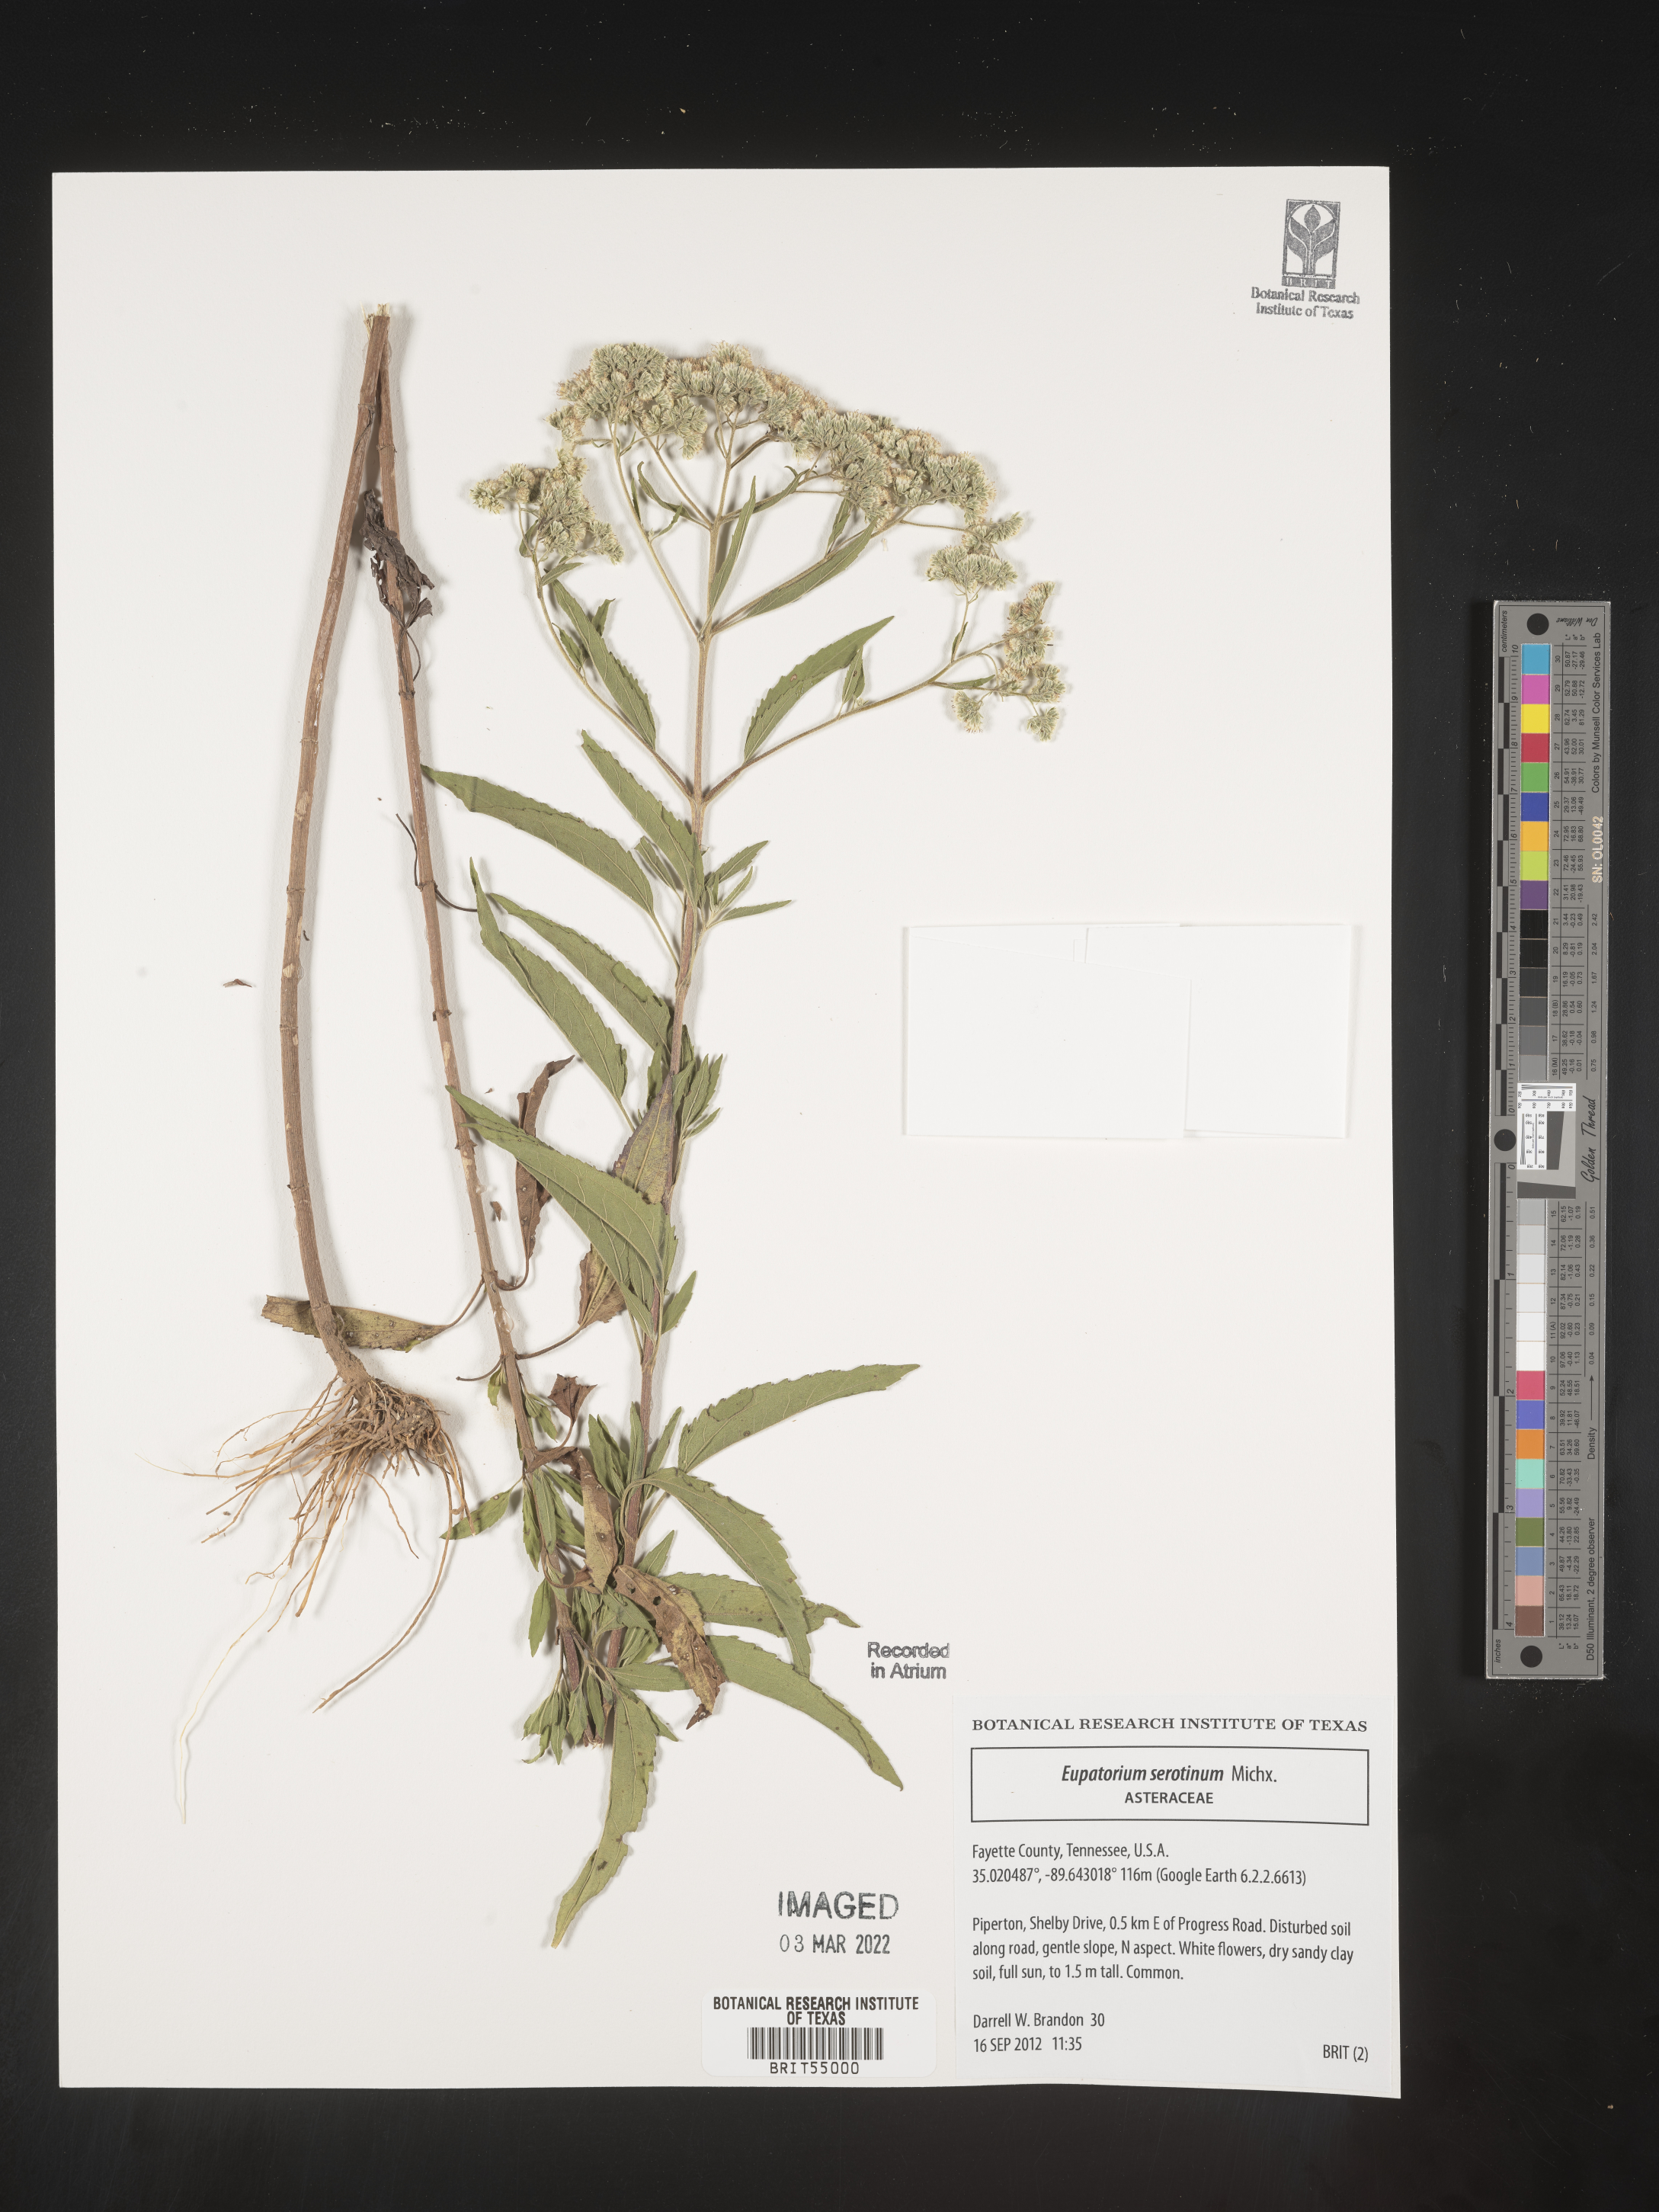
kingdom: Plantae
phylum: Tracheophyta
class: Magnoliopsida
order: Asterales
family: Asteraceae
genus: Eupatorium
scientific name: Eupatorium serotinum
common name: Late boneset
